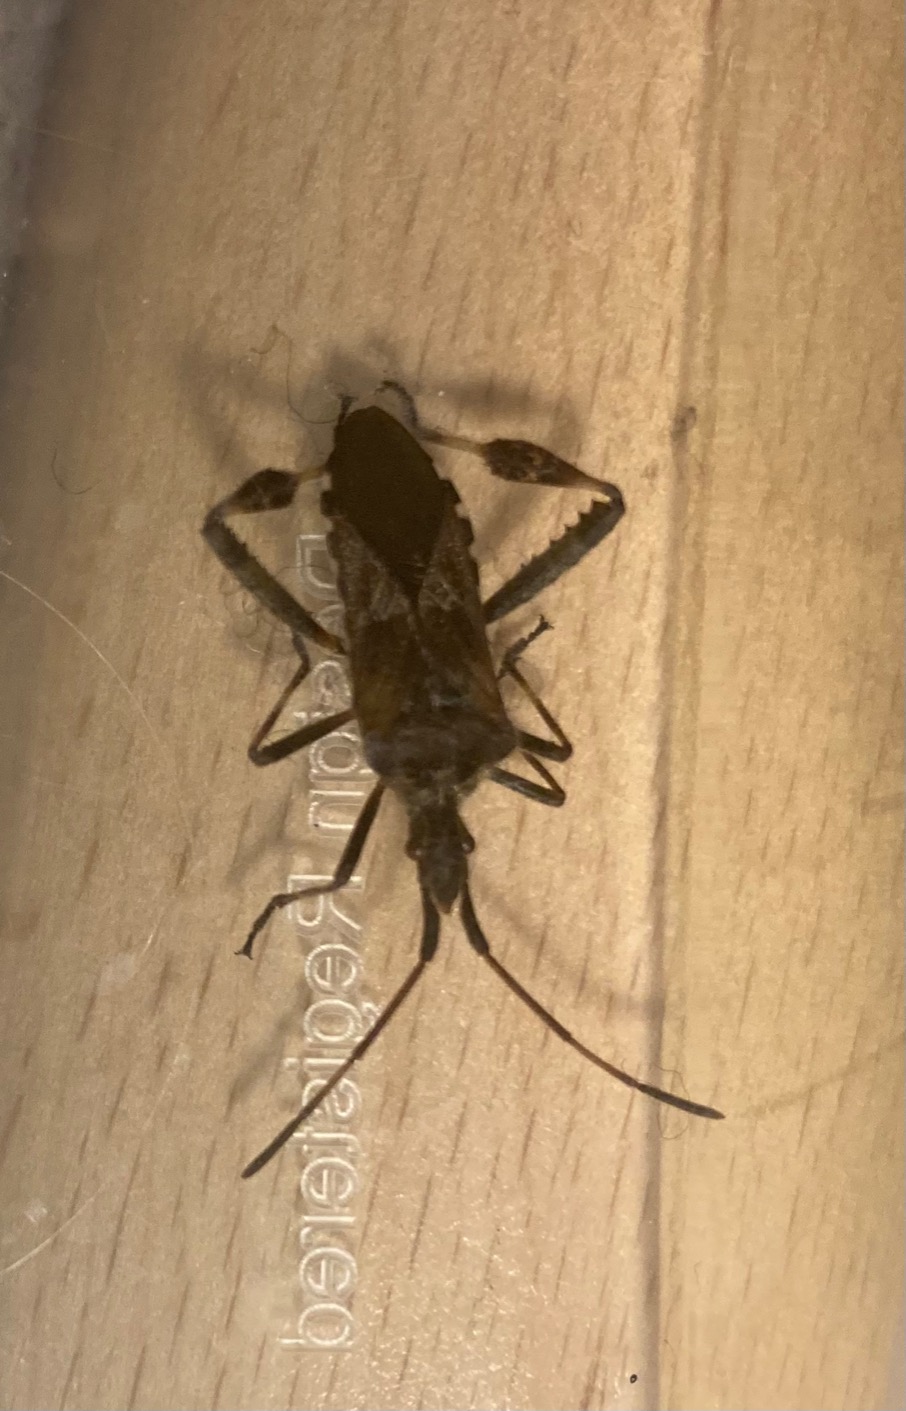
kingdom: Animalia
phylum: Arthropoda
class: Insecta
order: Hemiptera
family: Coreidae
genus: Leptoglossus
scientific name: Leptoglossus occidentalis
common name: Amerikansk fyrretæge
